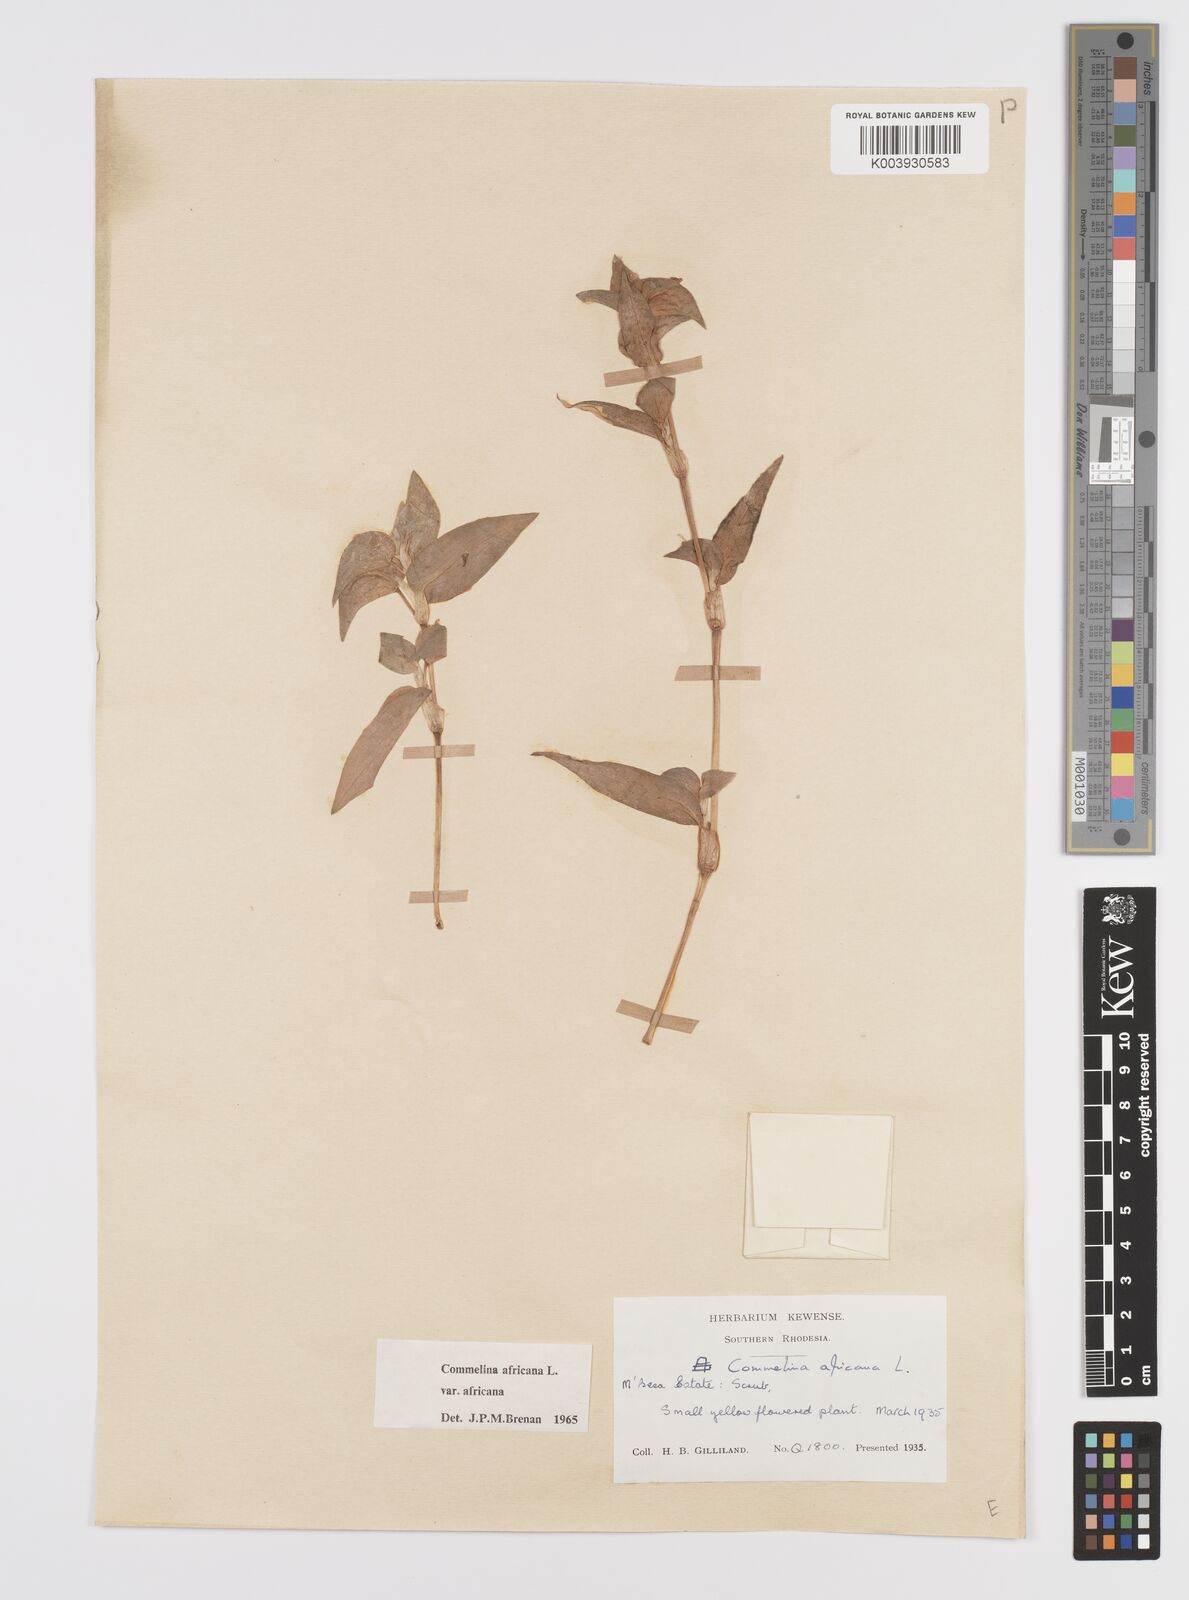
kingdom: Plantae
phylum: Tracheophyta
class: Liliopsida
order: Commelinales
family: Commelinaceae
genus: Commelina
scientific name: Commelina africana
